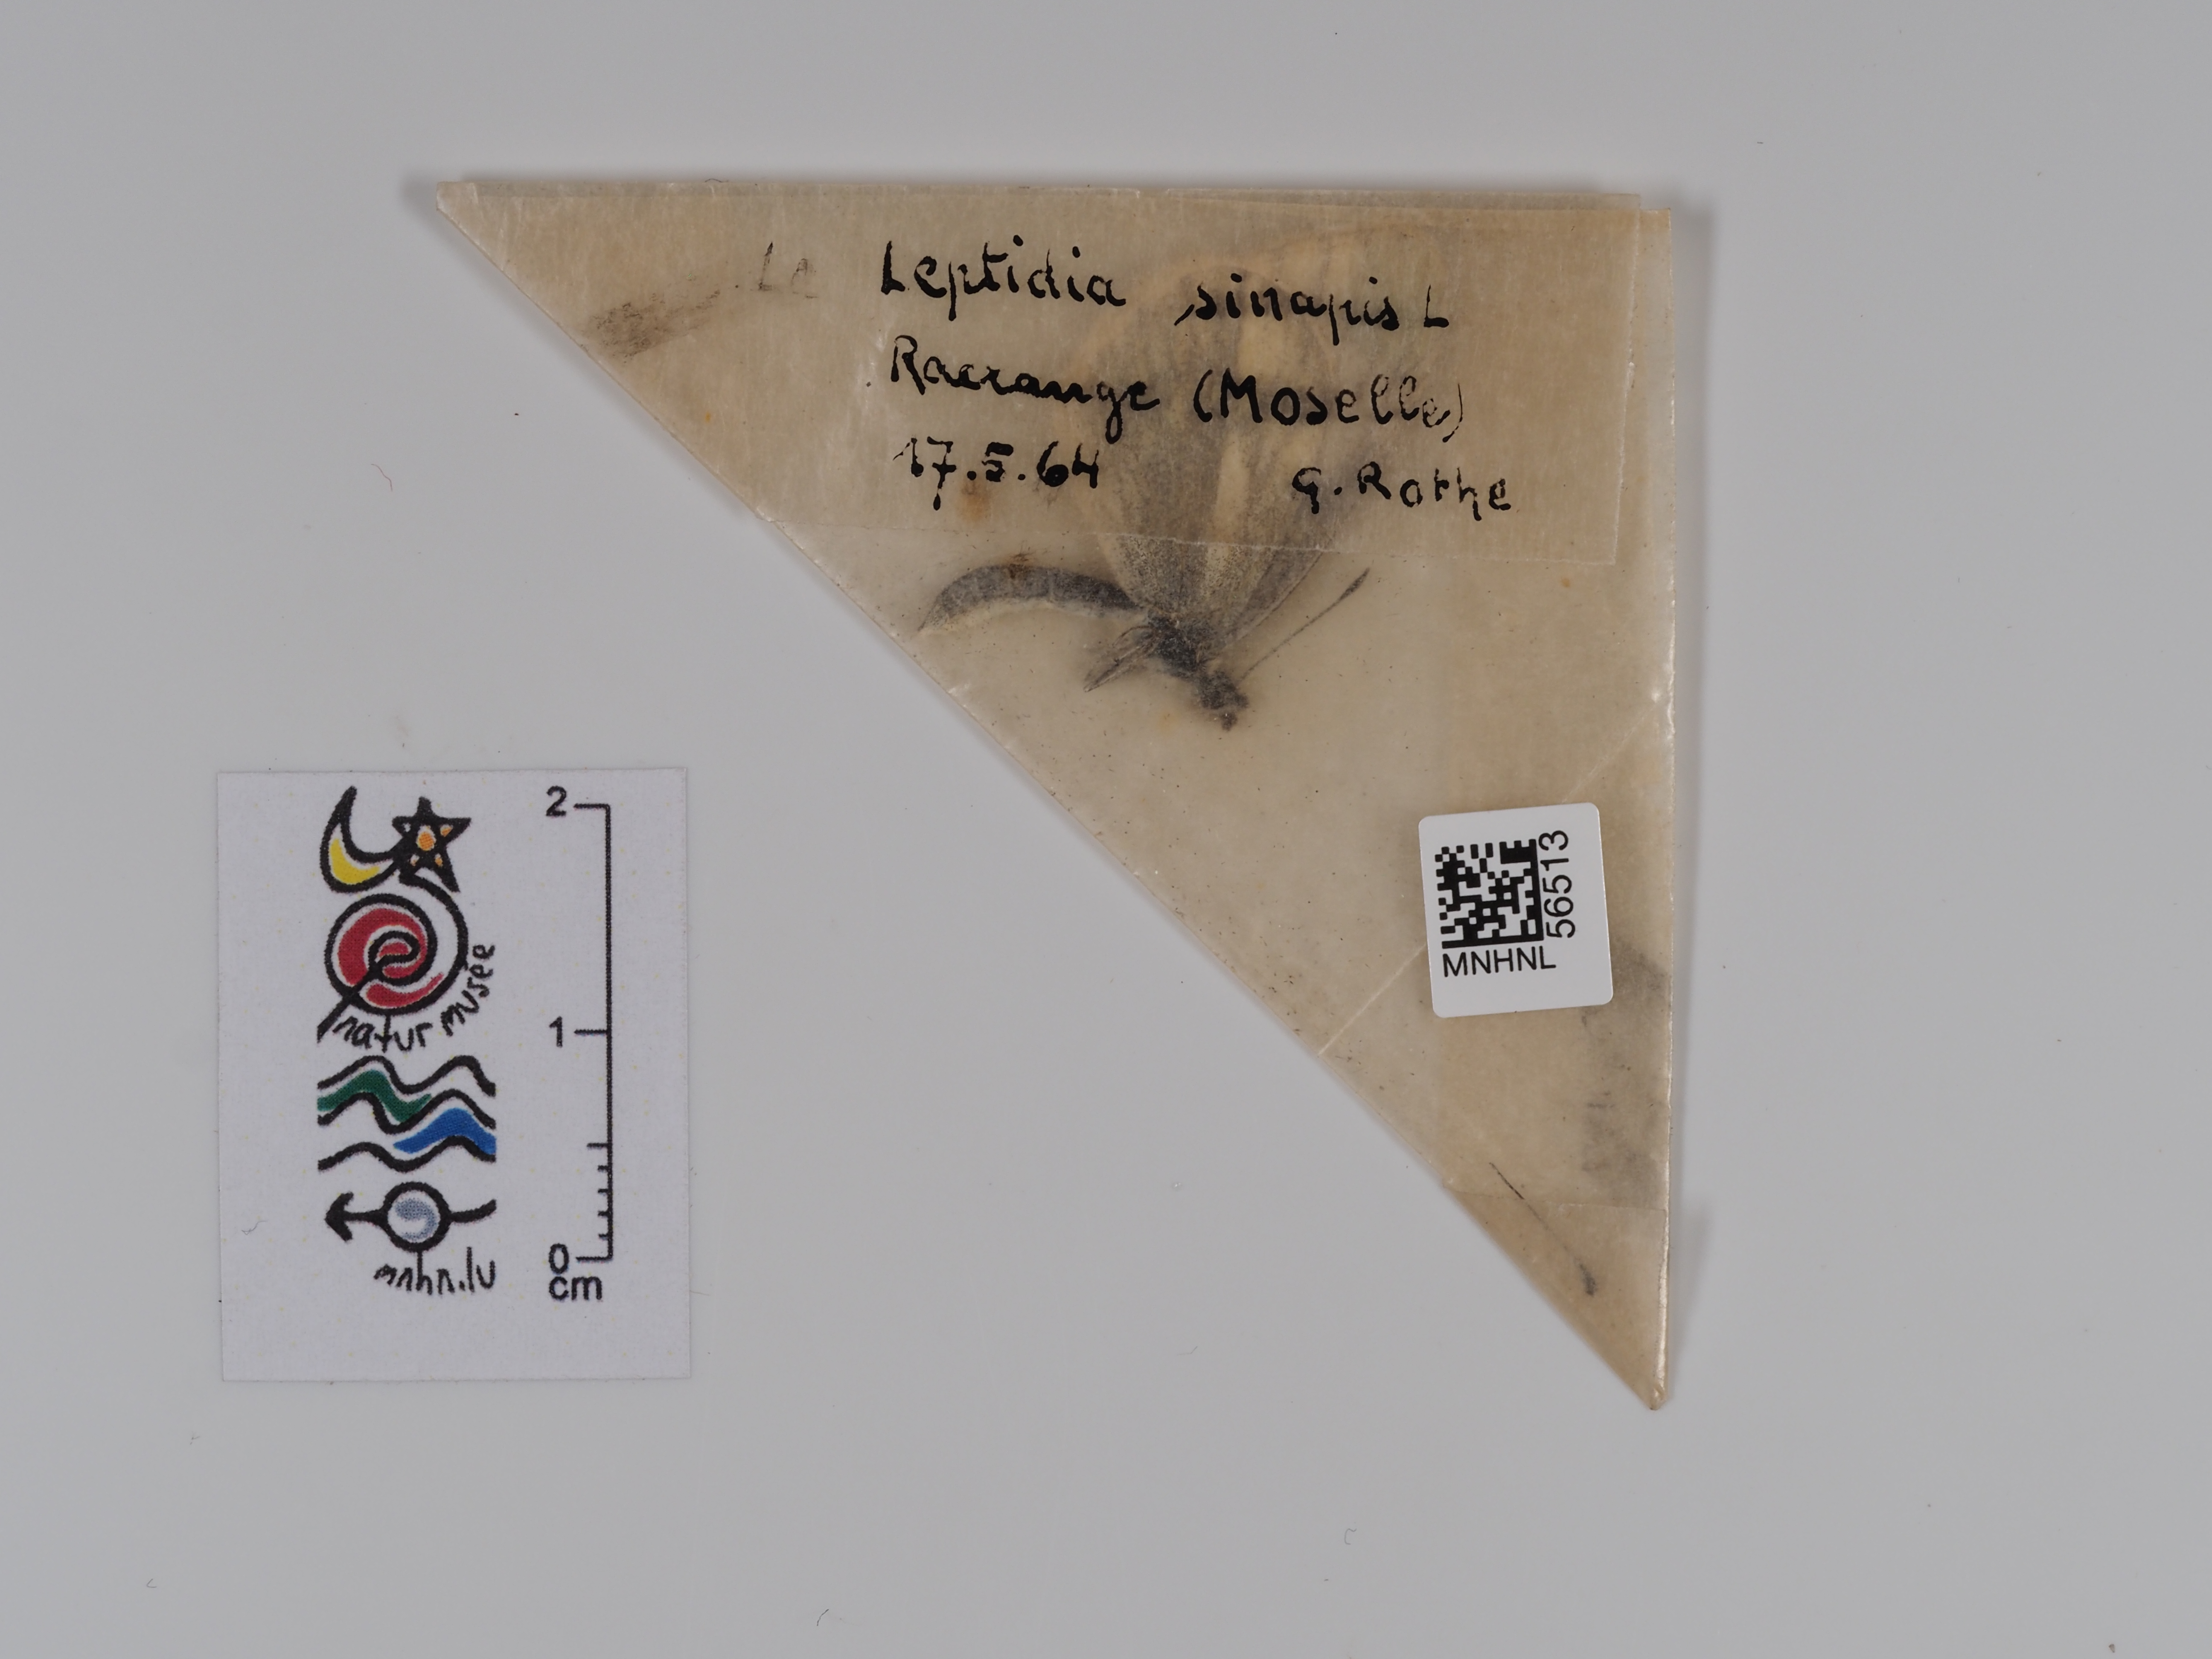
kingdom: Animalia
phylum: Arthropoda
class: Insecta
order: Lepidoptera
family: Pieridae
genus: Leptidea
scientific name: Leptidea sinapis
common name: Wood white
